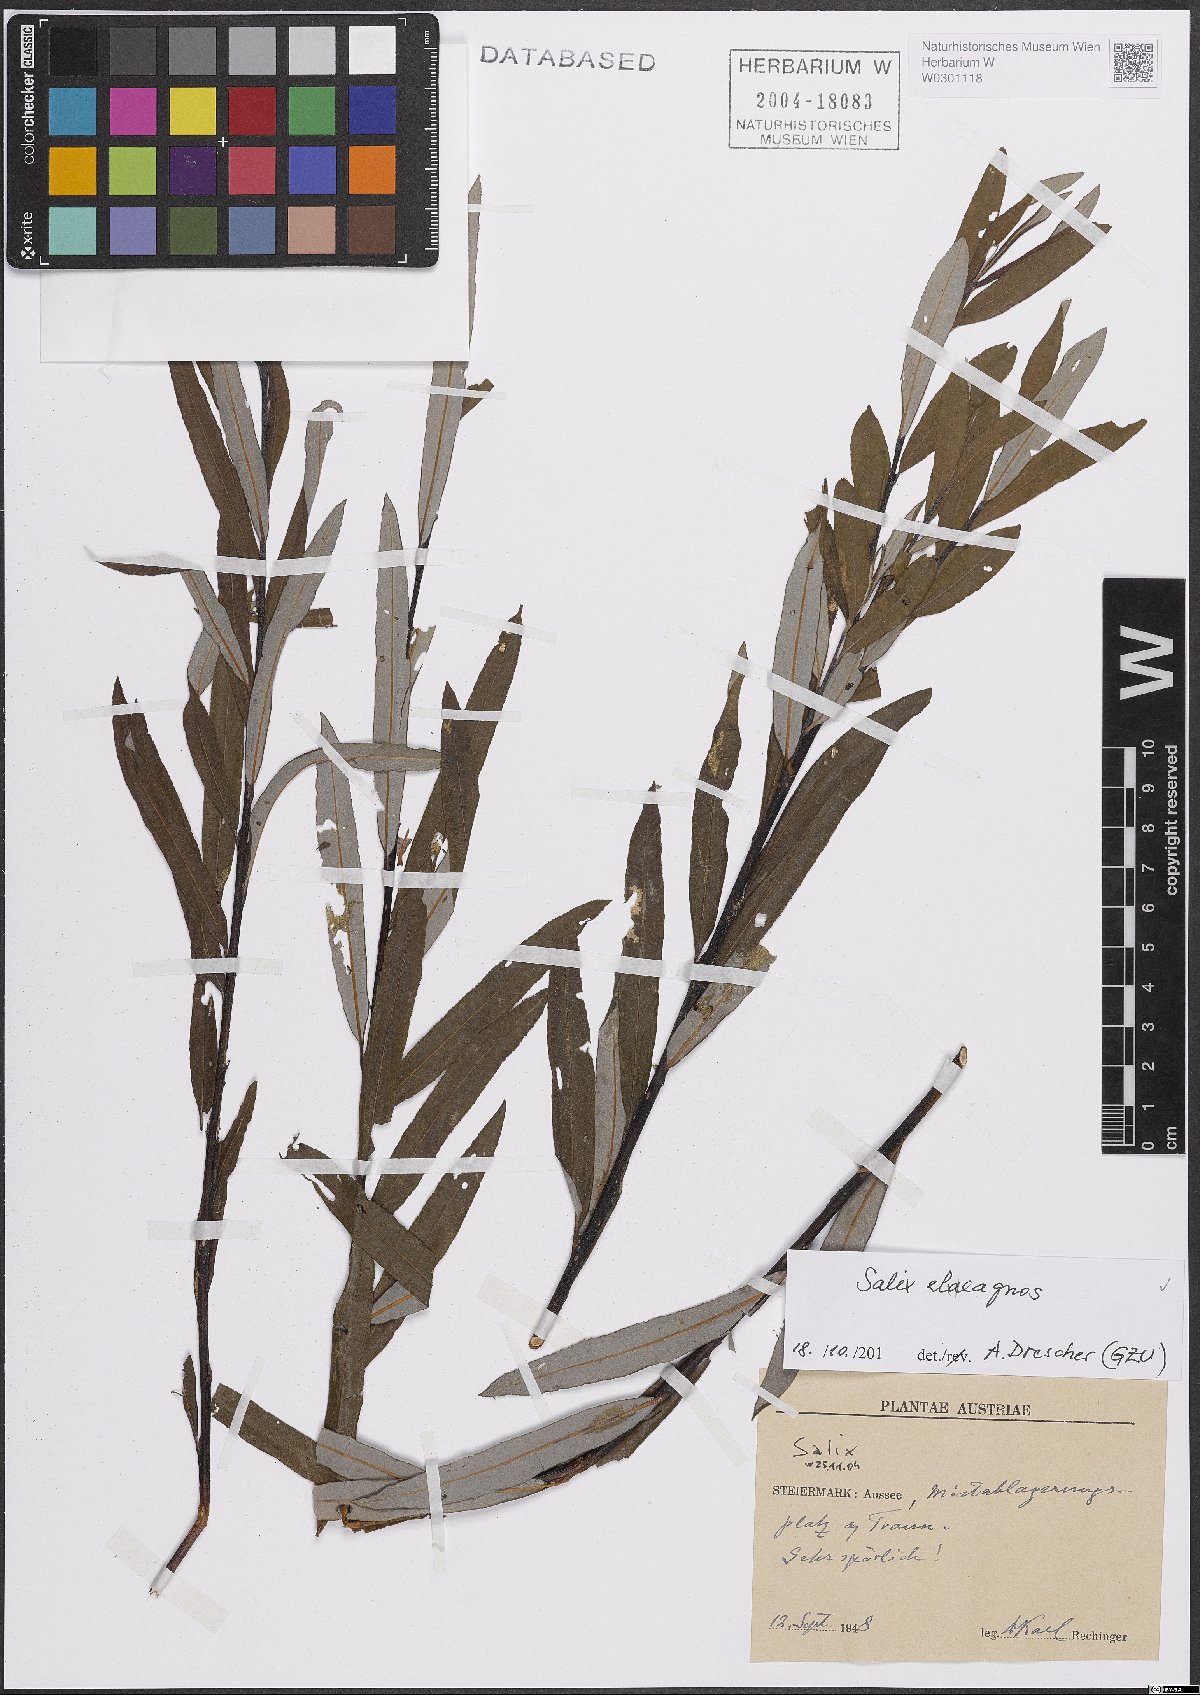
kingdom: Plantae
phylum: Tracheophyta
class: Magnoliopsida
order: Malpighiales
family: Salicaceae
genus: Salix
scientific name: Salix eleagnos
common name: Elaeagnus willow
